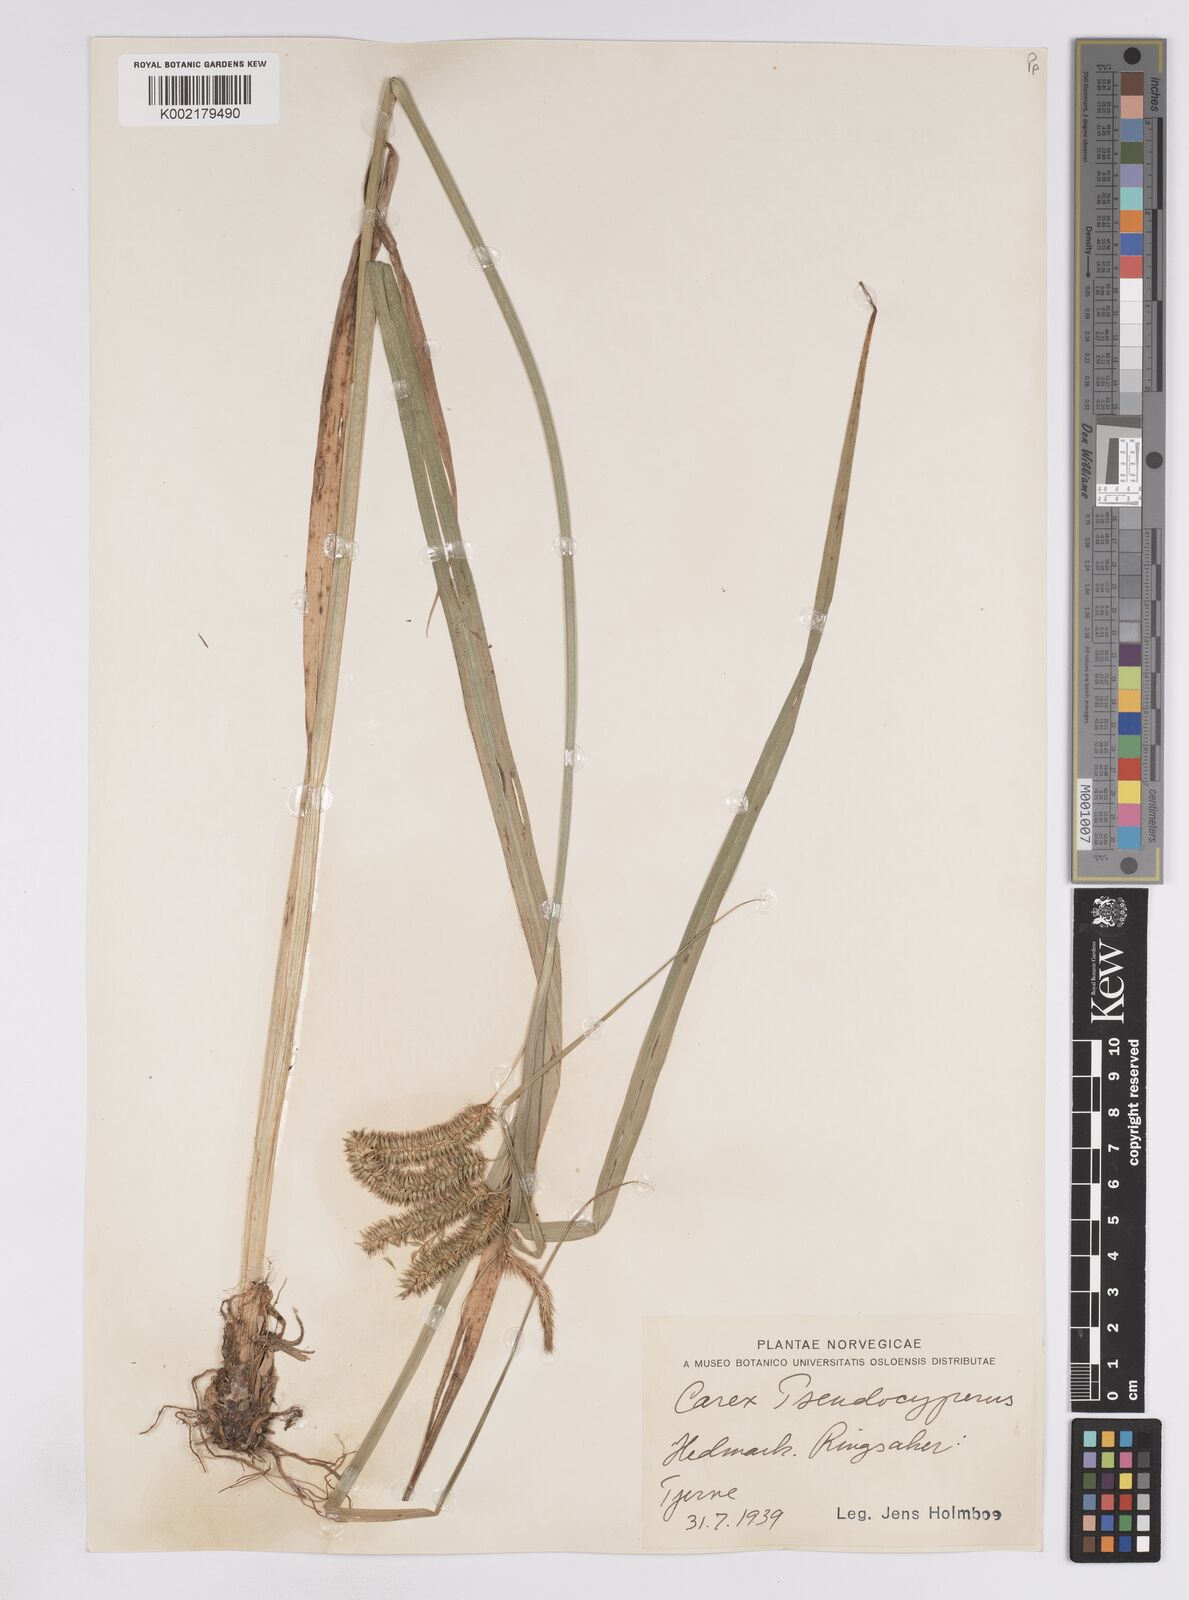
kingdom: Plantae
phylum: Tracheophyta
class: Liliopsida
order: Poales
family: Cyperaceae
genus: Carex
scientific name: Carex pseudocyperus
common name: Cyperus sedge
